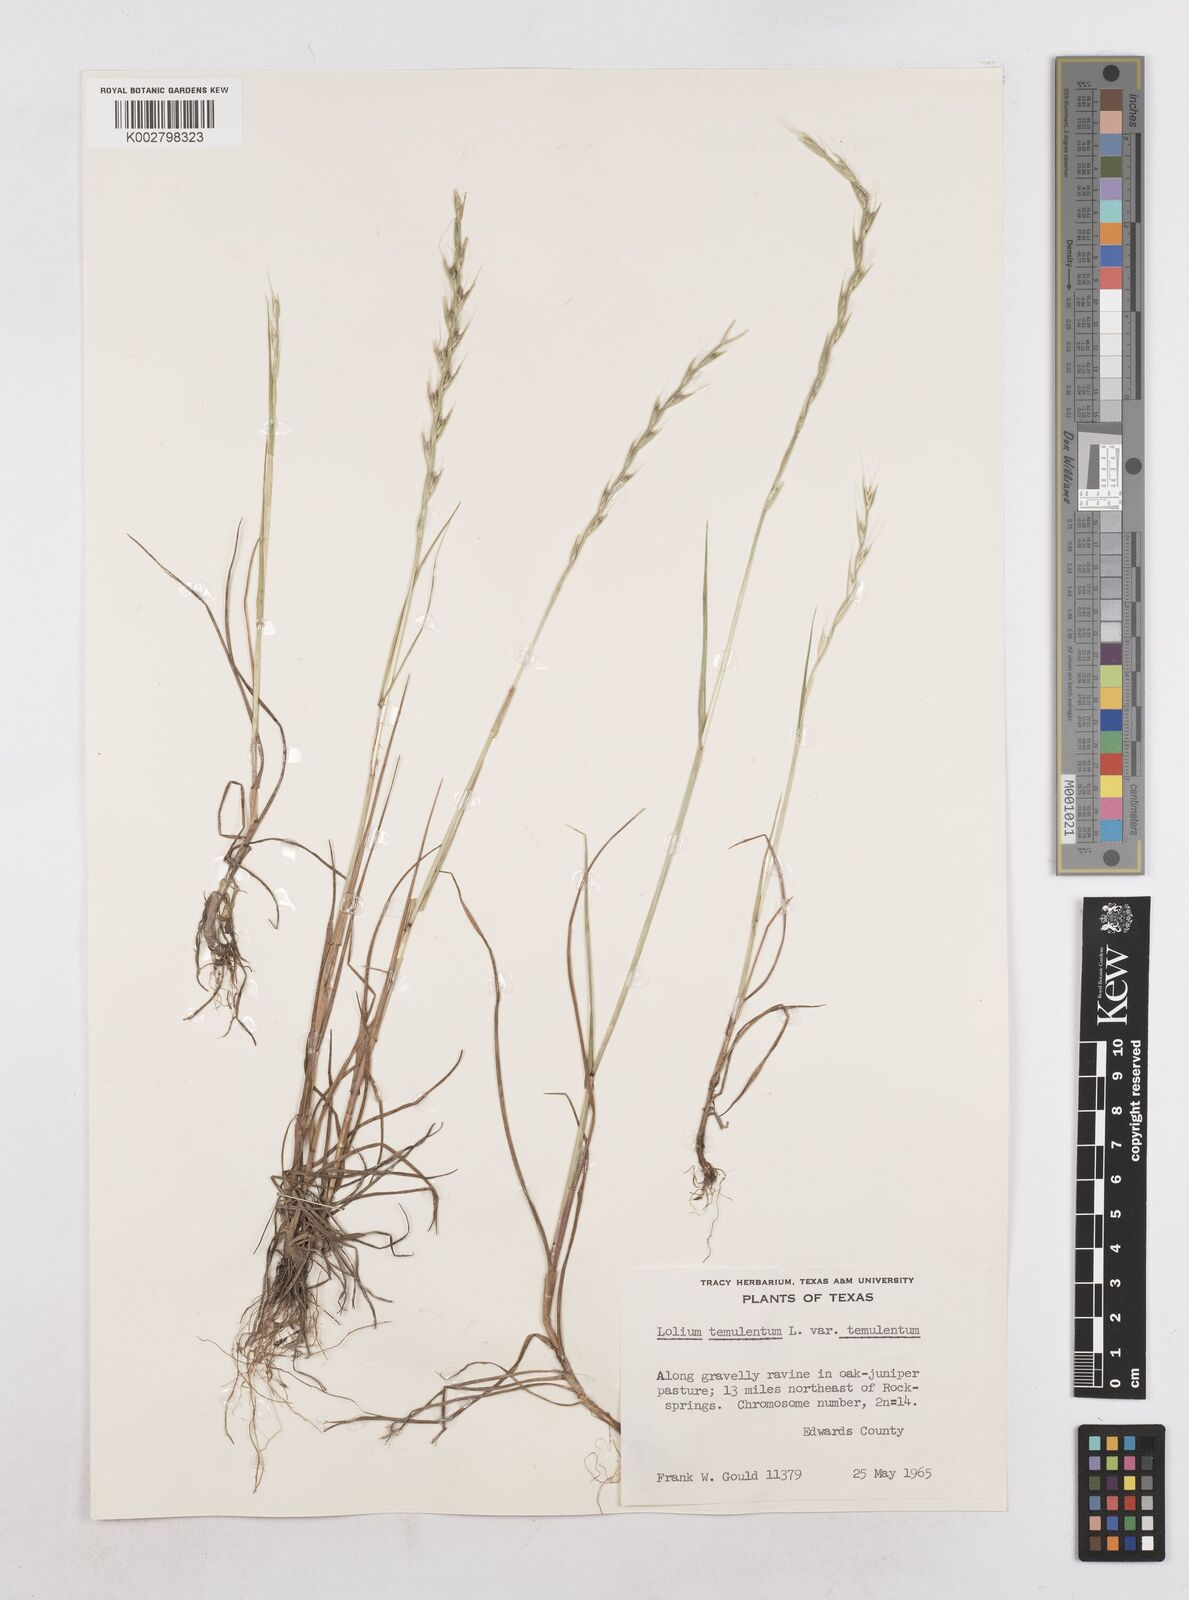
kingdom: Plantae
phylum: Tracheophyta
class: Liliopsida
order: Poales
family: Poaceae
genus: Lolium
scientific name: Lolium temulentum
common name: Darnel
